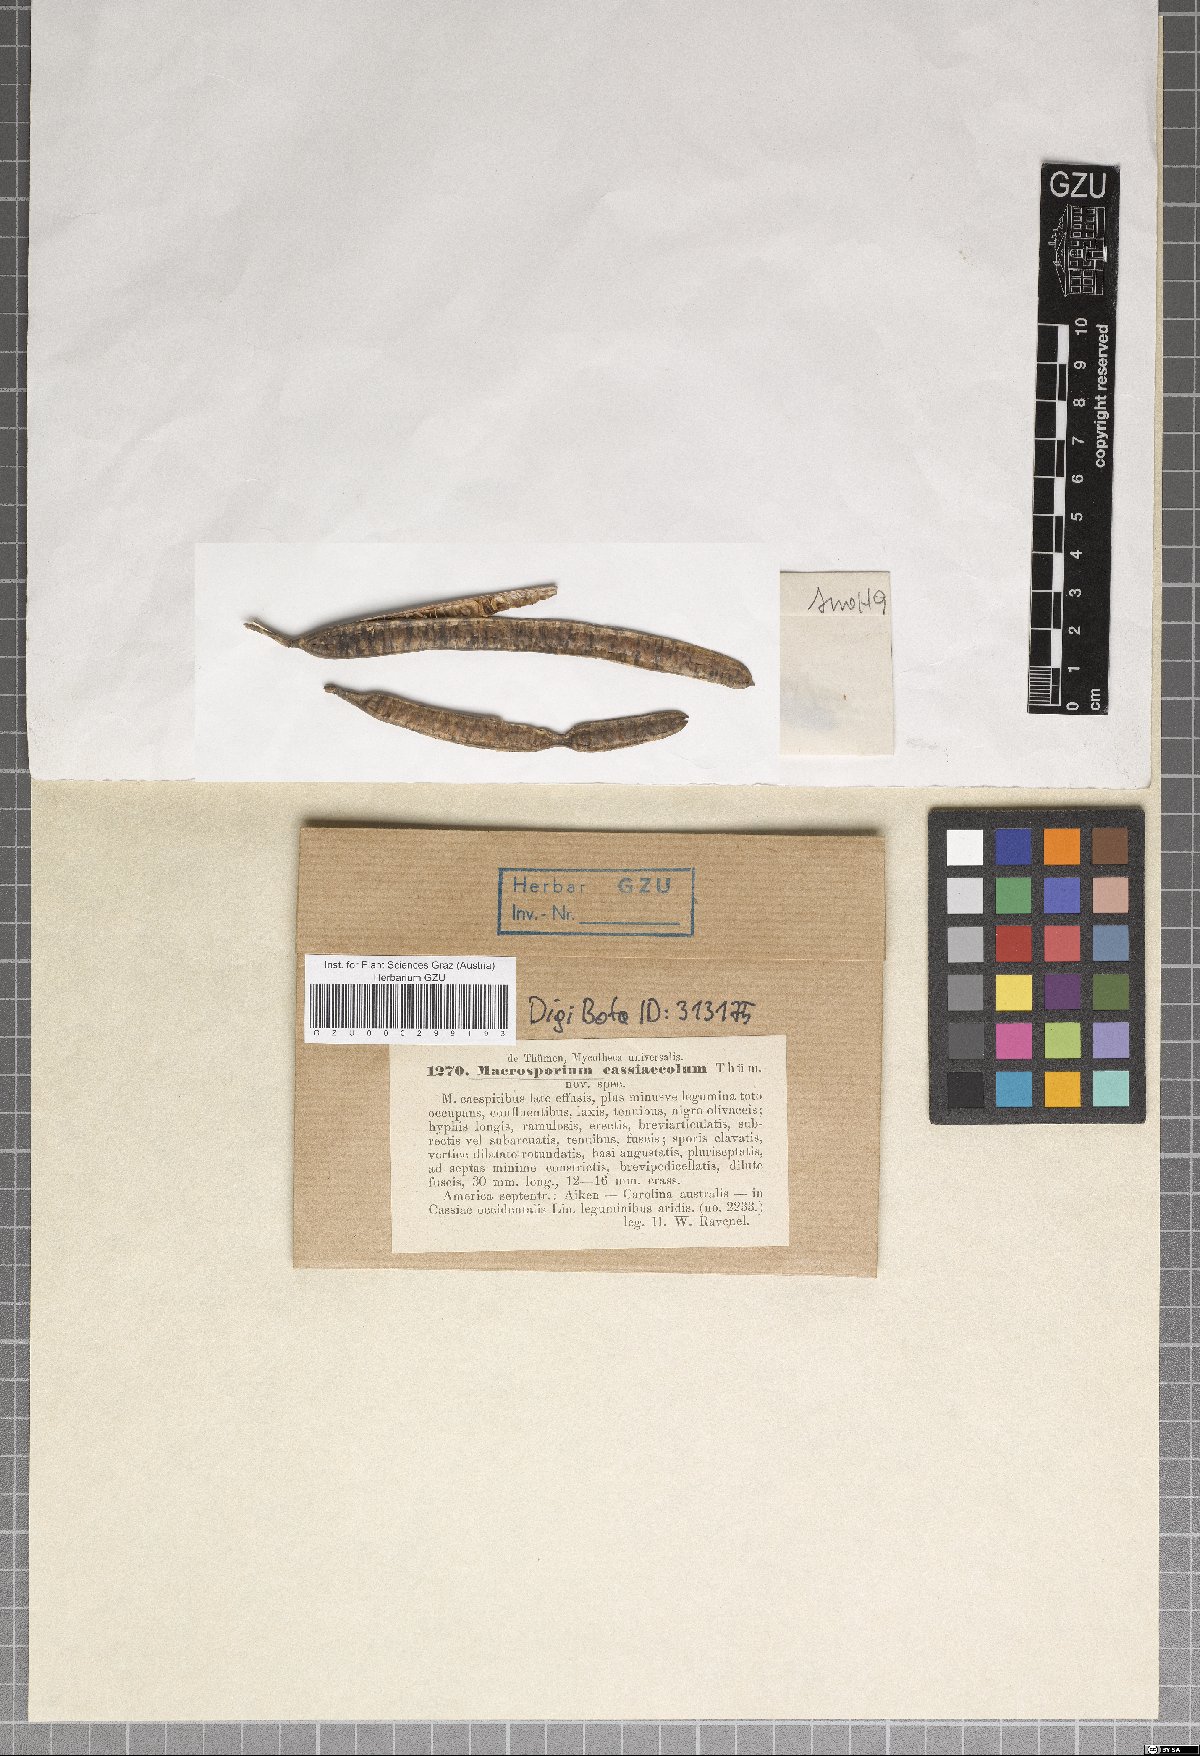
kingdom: Fungi
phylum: Ascomycota
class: Dothideomycetes
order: Pleosporales
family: Pleosporaceae
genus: Macrosporium
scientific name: Macrosporium
